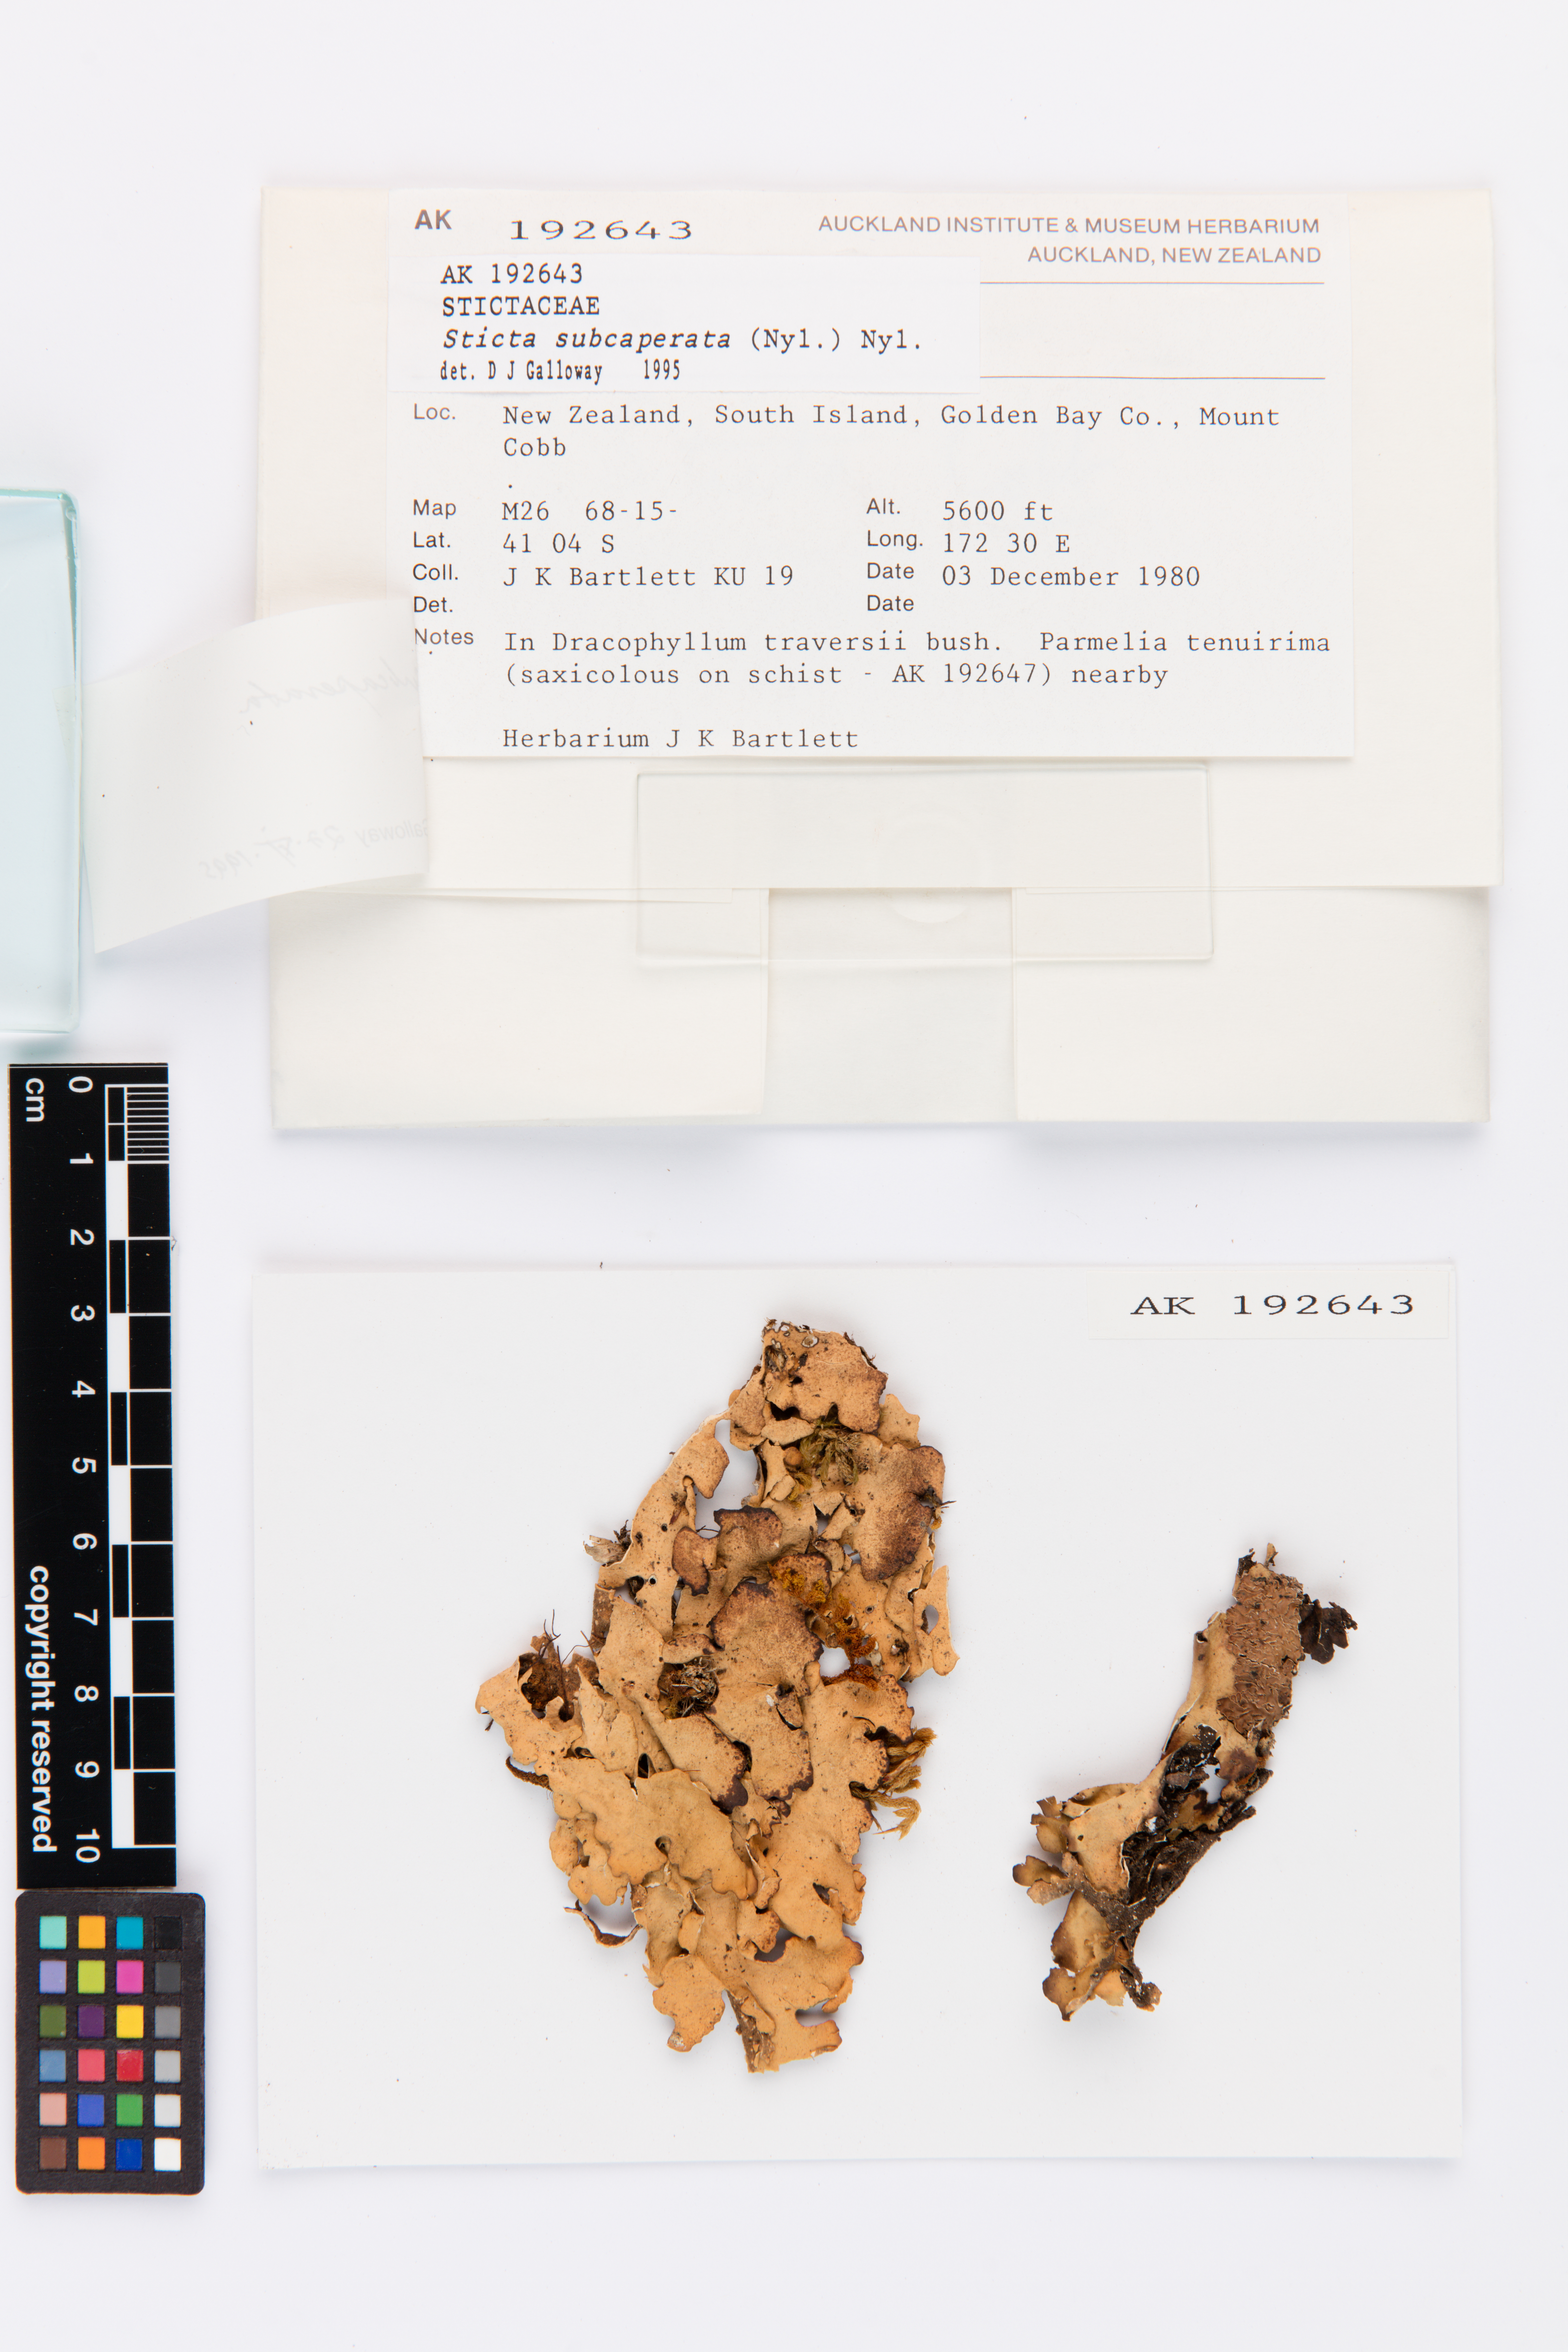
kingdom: Fungi
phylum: Ascomycota
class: Lecanoromycetes
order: Peltigerales
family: Lobariaceae
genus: Sticta
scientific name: Sticta subcaperata
